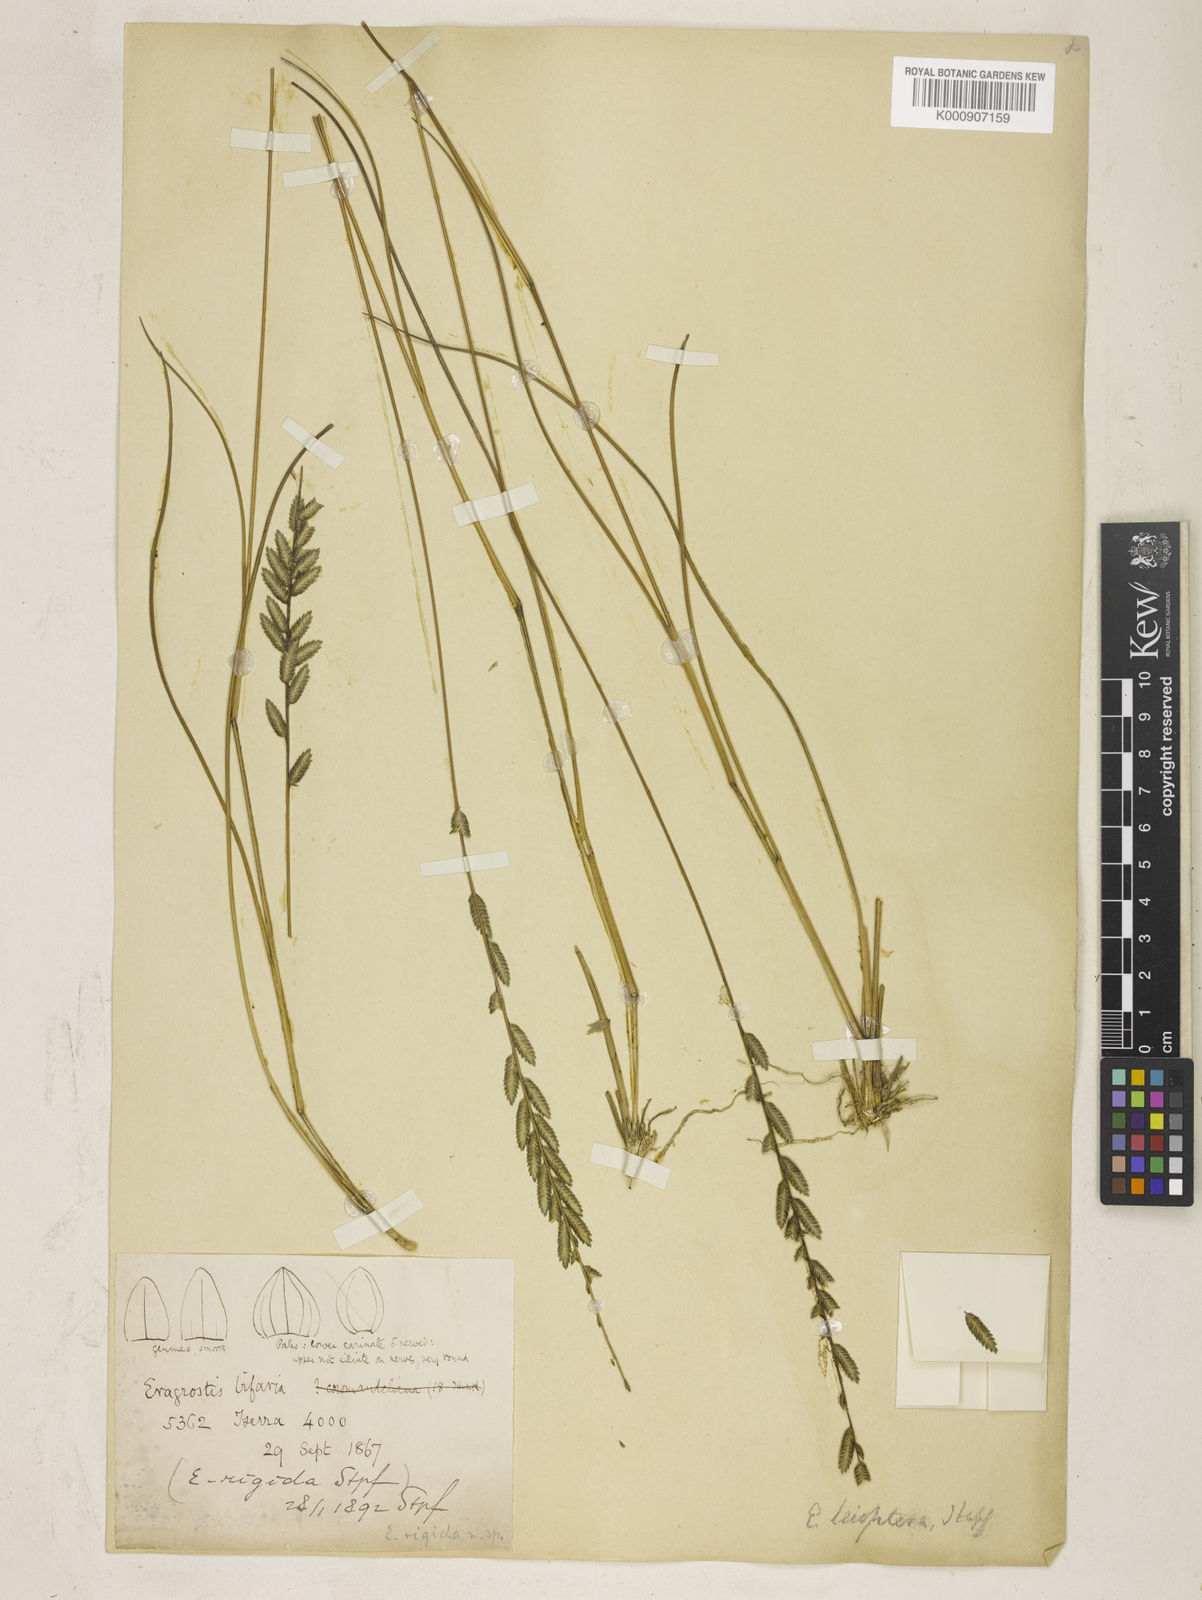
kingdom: Plantae
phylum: Tracheophyta
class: Liliopsida
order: Poales
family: Poaceae
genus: Eragrostiella
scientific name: Eragrostiella leioptera
